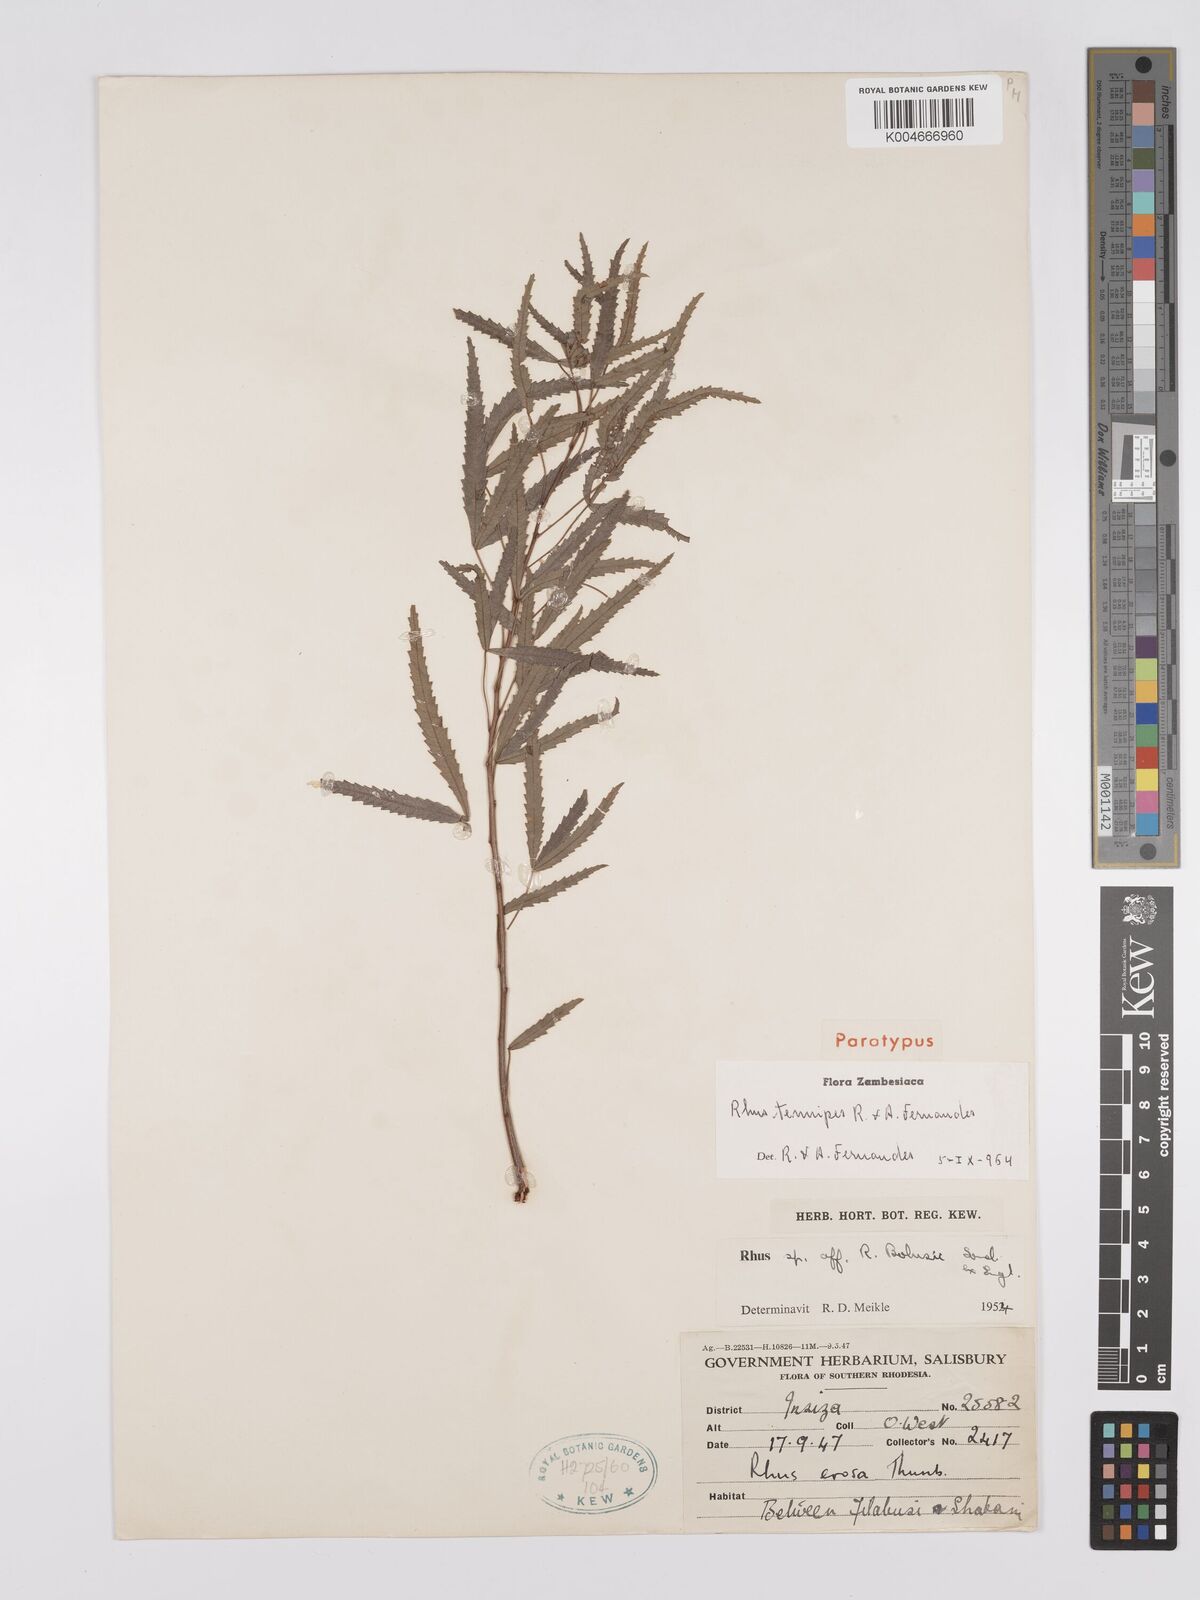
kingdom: Plantae
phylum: Tracheophyta
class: Magnoliopsida
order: Sapindales
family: Anacardiaceae
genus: Searsia
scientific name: Searsia tenuipes
